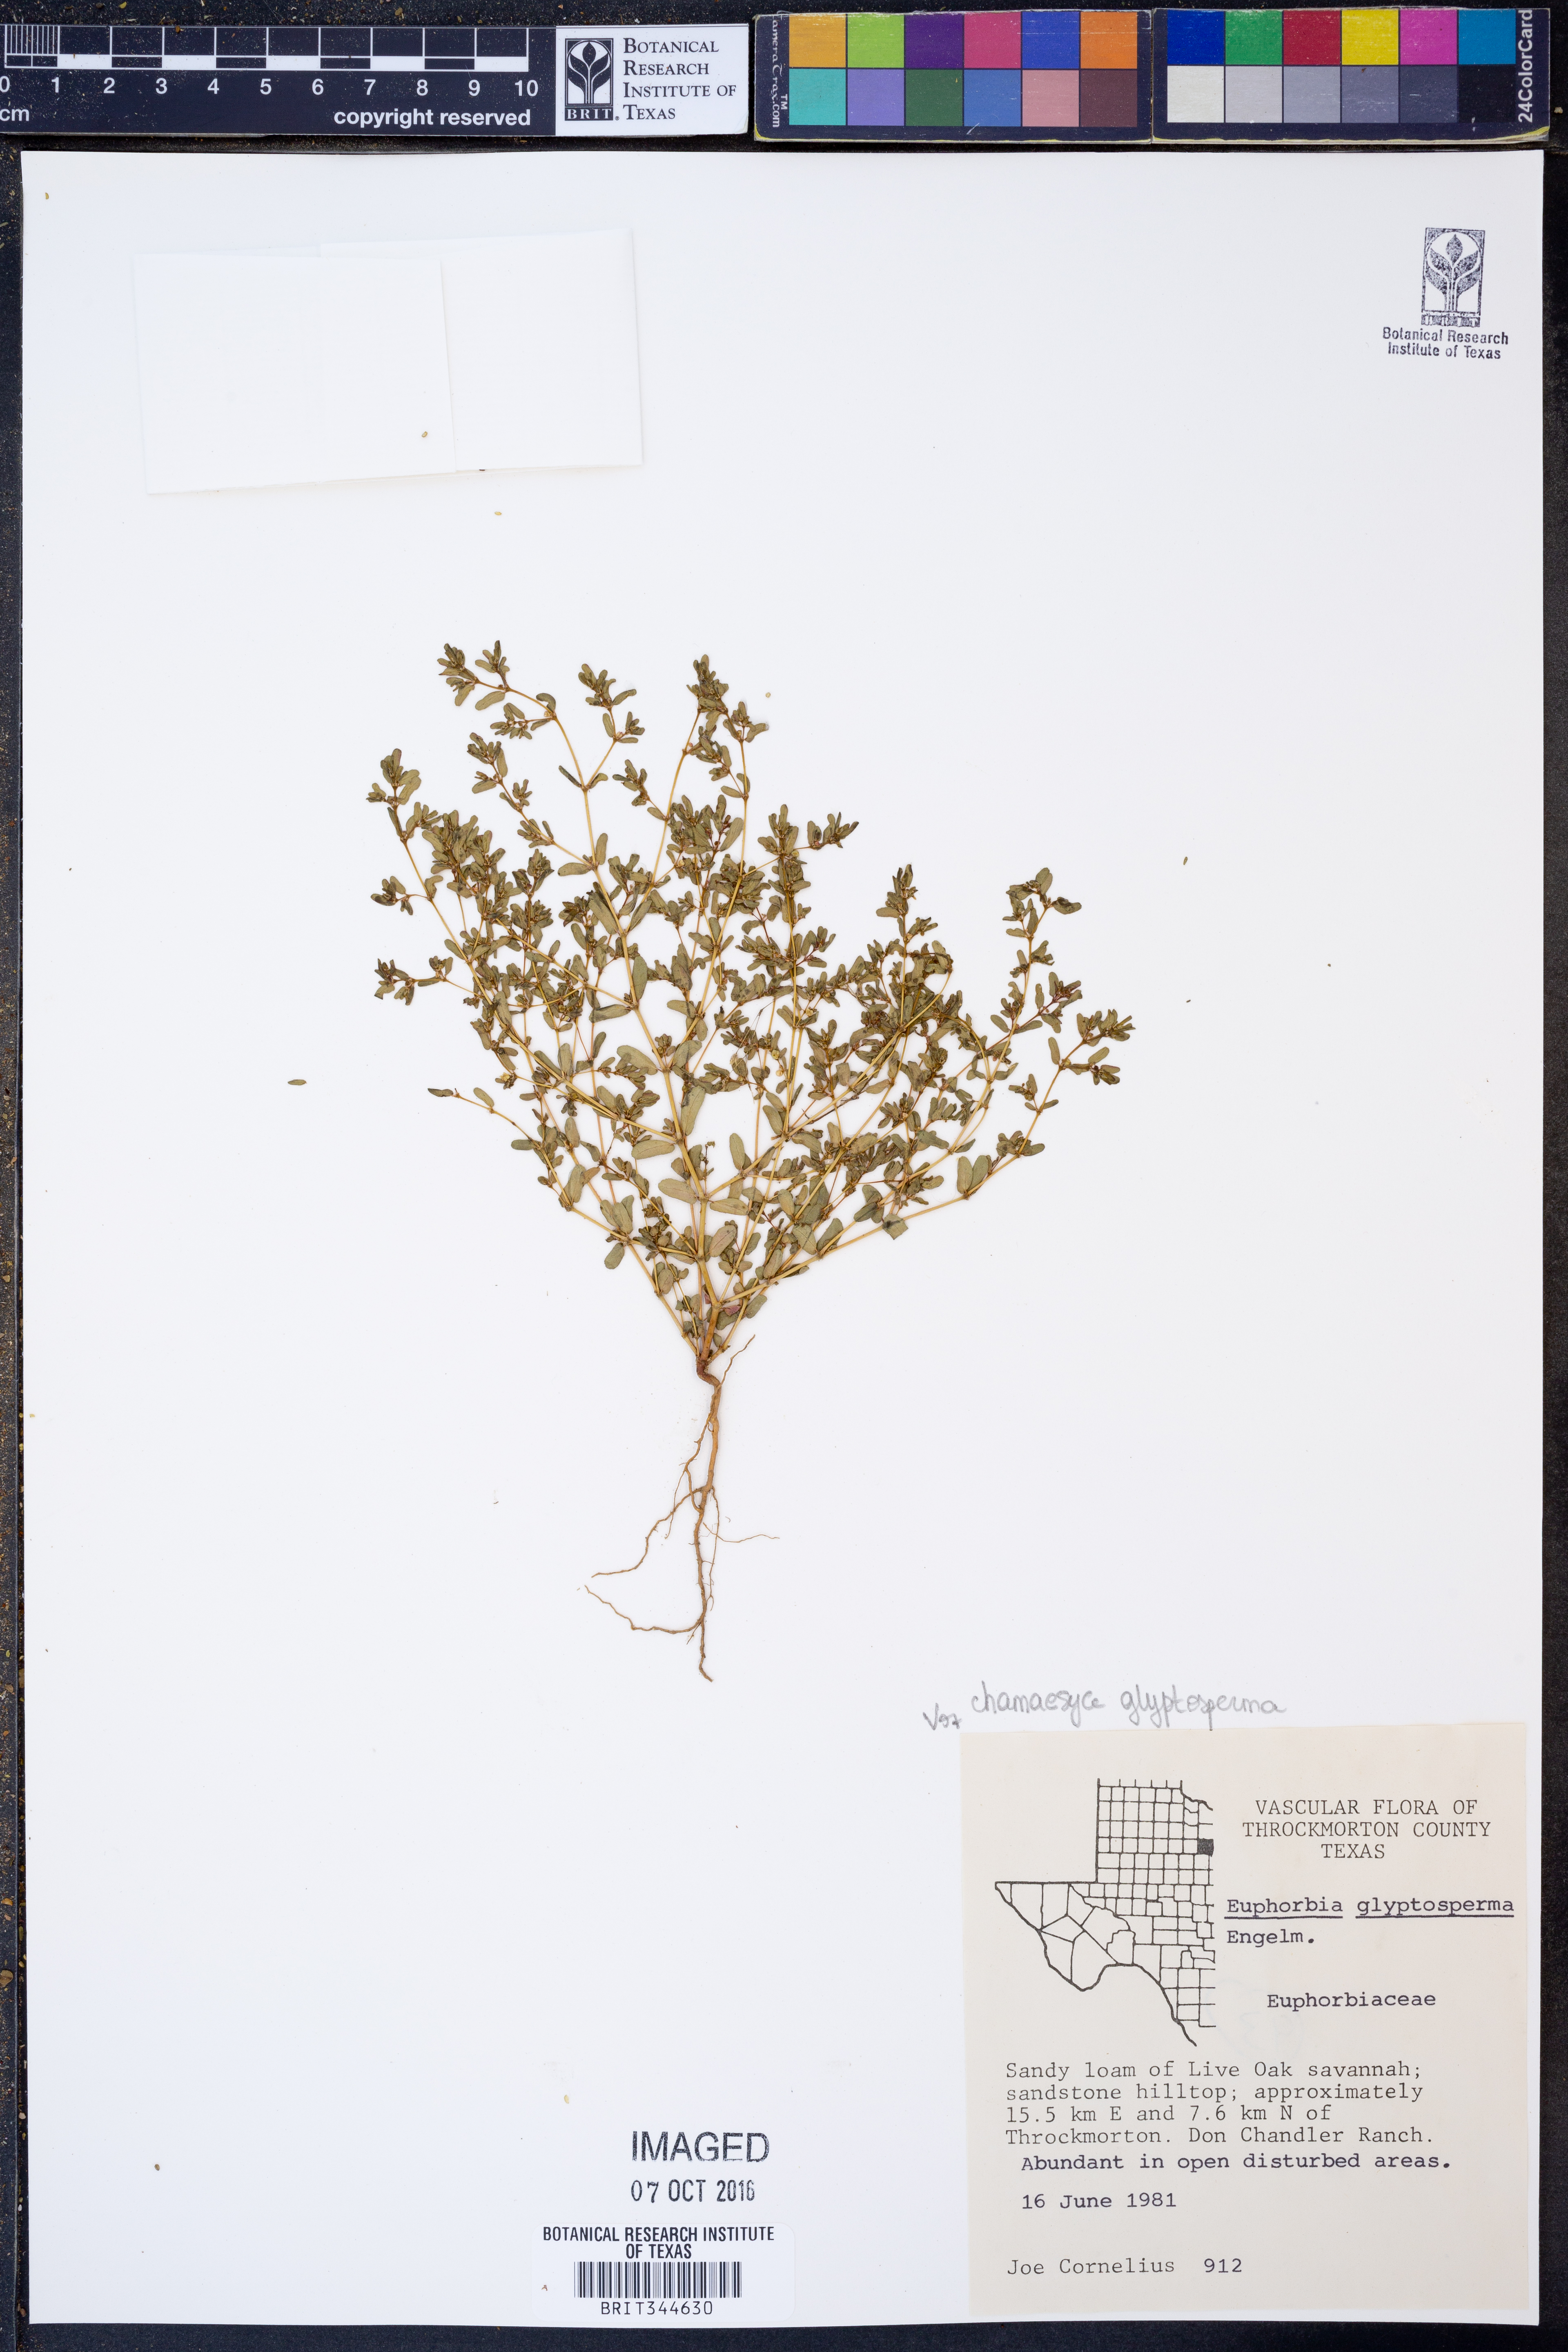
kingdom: Plantae
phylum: Tracheophyta
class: Magnoliopsida
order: Malpighiales
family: Euphorbiaceae
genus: Euphorbia
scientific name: Euphorbia glyptosperma
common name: Corrugate-seeded spurge
